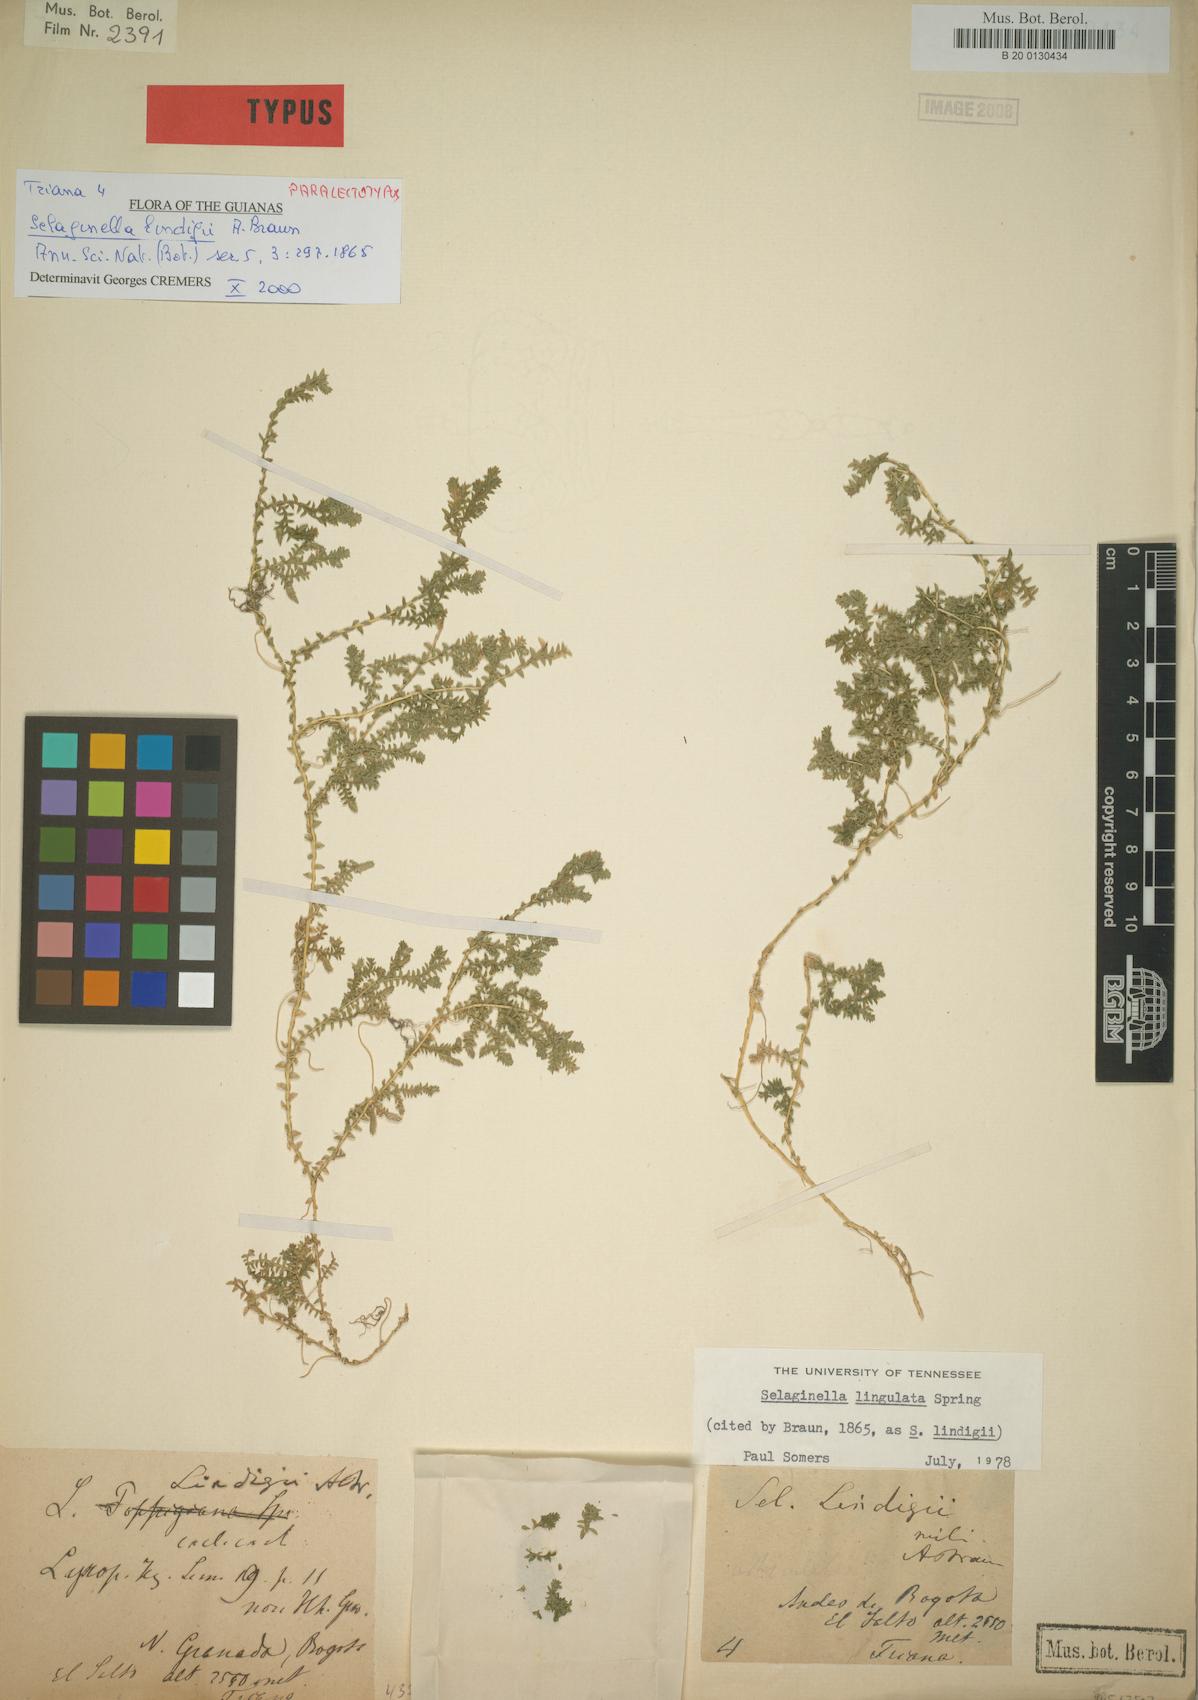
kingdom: Plantae
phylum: Tracheophyta
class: Lycopodiopsida
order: Selaginellales
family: Selaginellaceae
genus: Selaginella
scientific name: Selaginella lingulata
